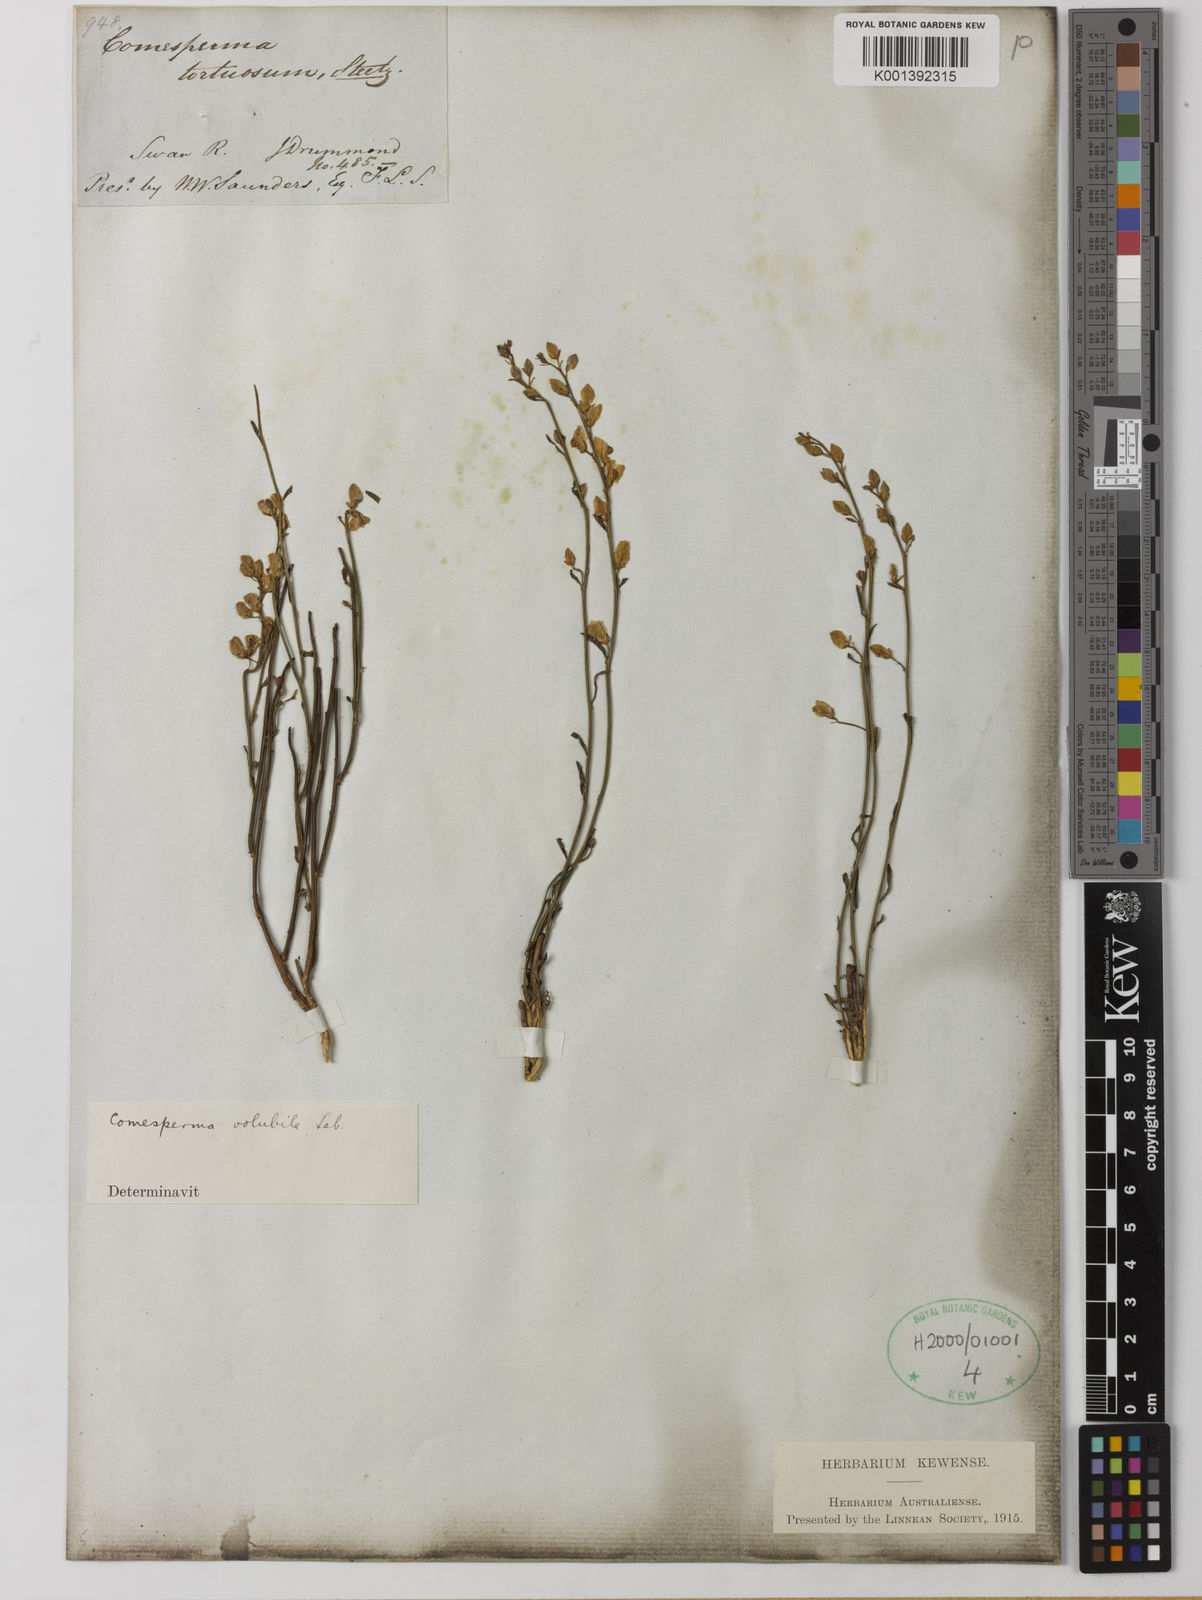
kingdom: Plantae
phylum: Tracheophyta
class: Magnoliopsida
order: Fabales
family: Polygalaceae
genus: Comesperma
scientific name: Comesperma volubile
